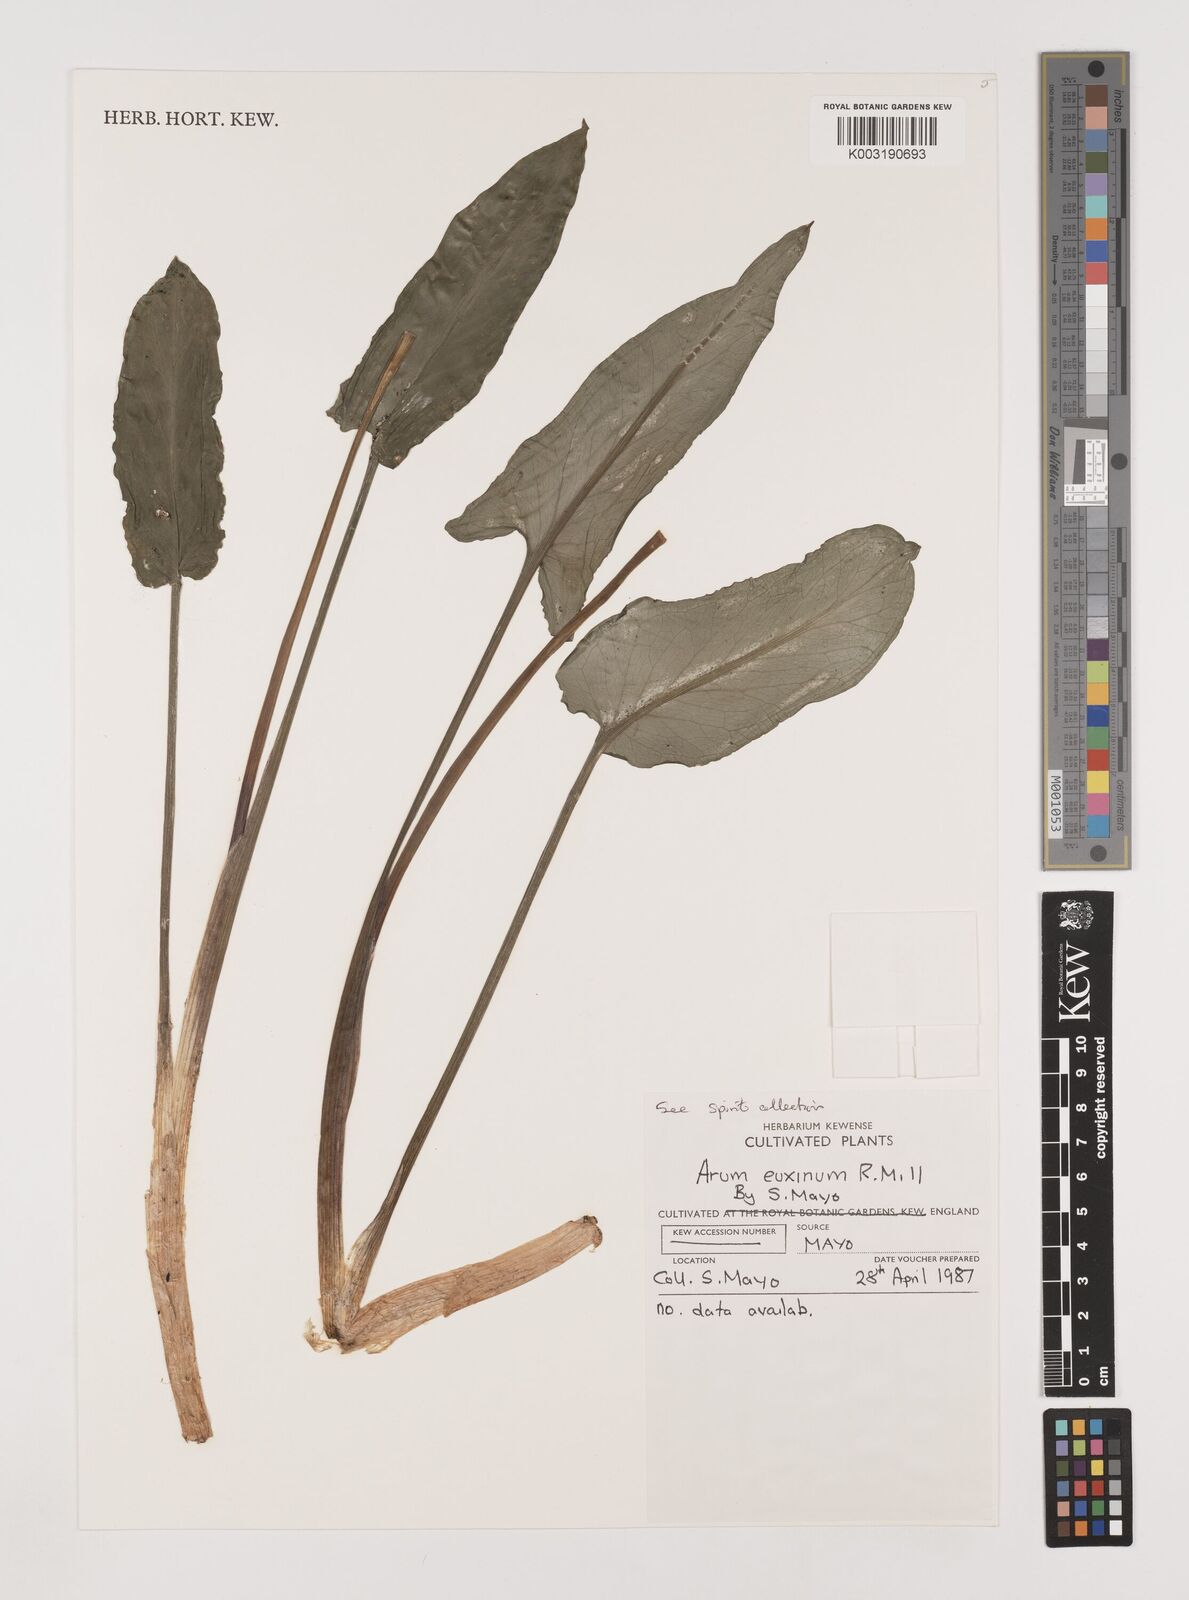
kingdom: Plantae
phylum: Tracheophyta
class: Liliopsida
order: Alismatales
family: Araceae
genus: Arum
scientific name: Arum euxinum
